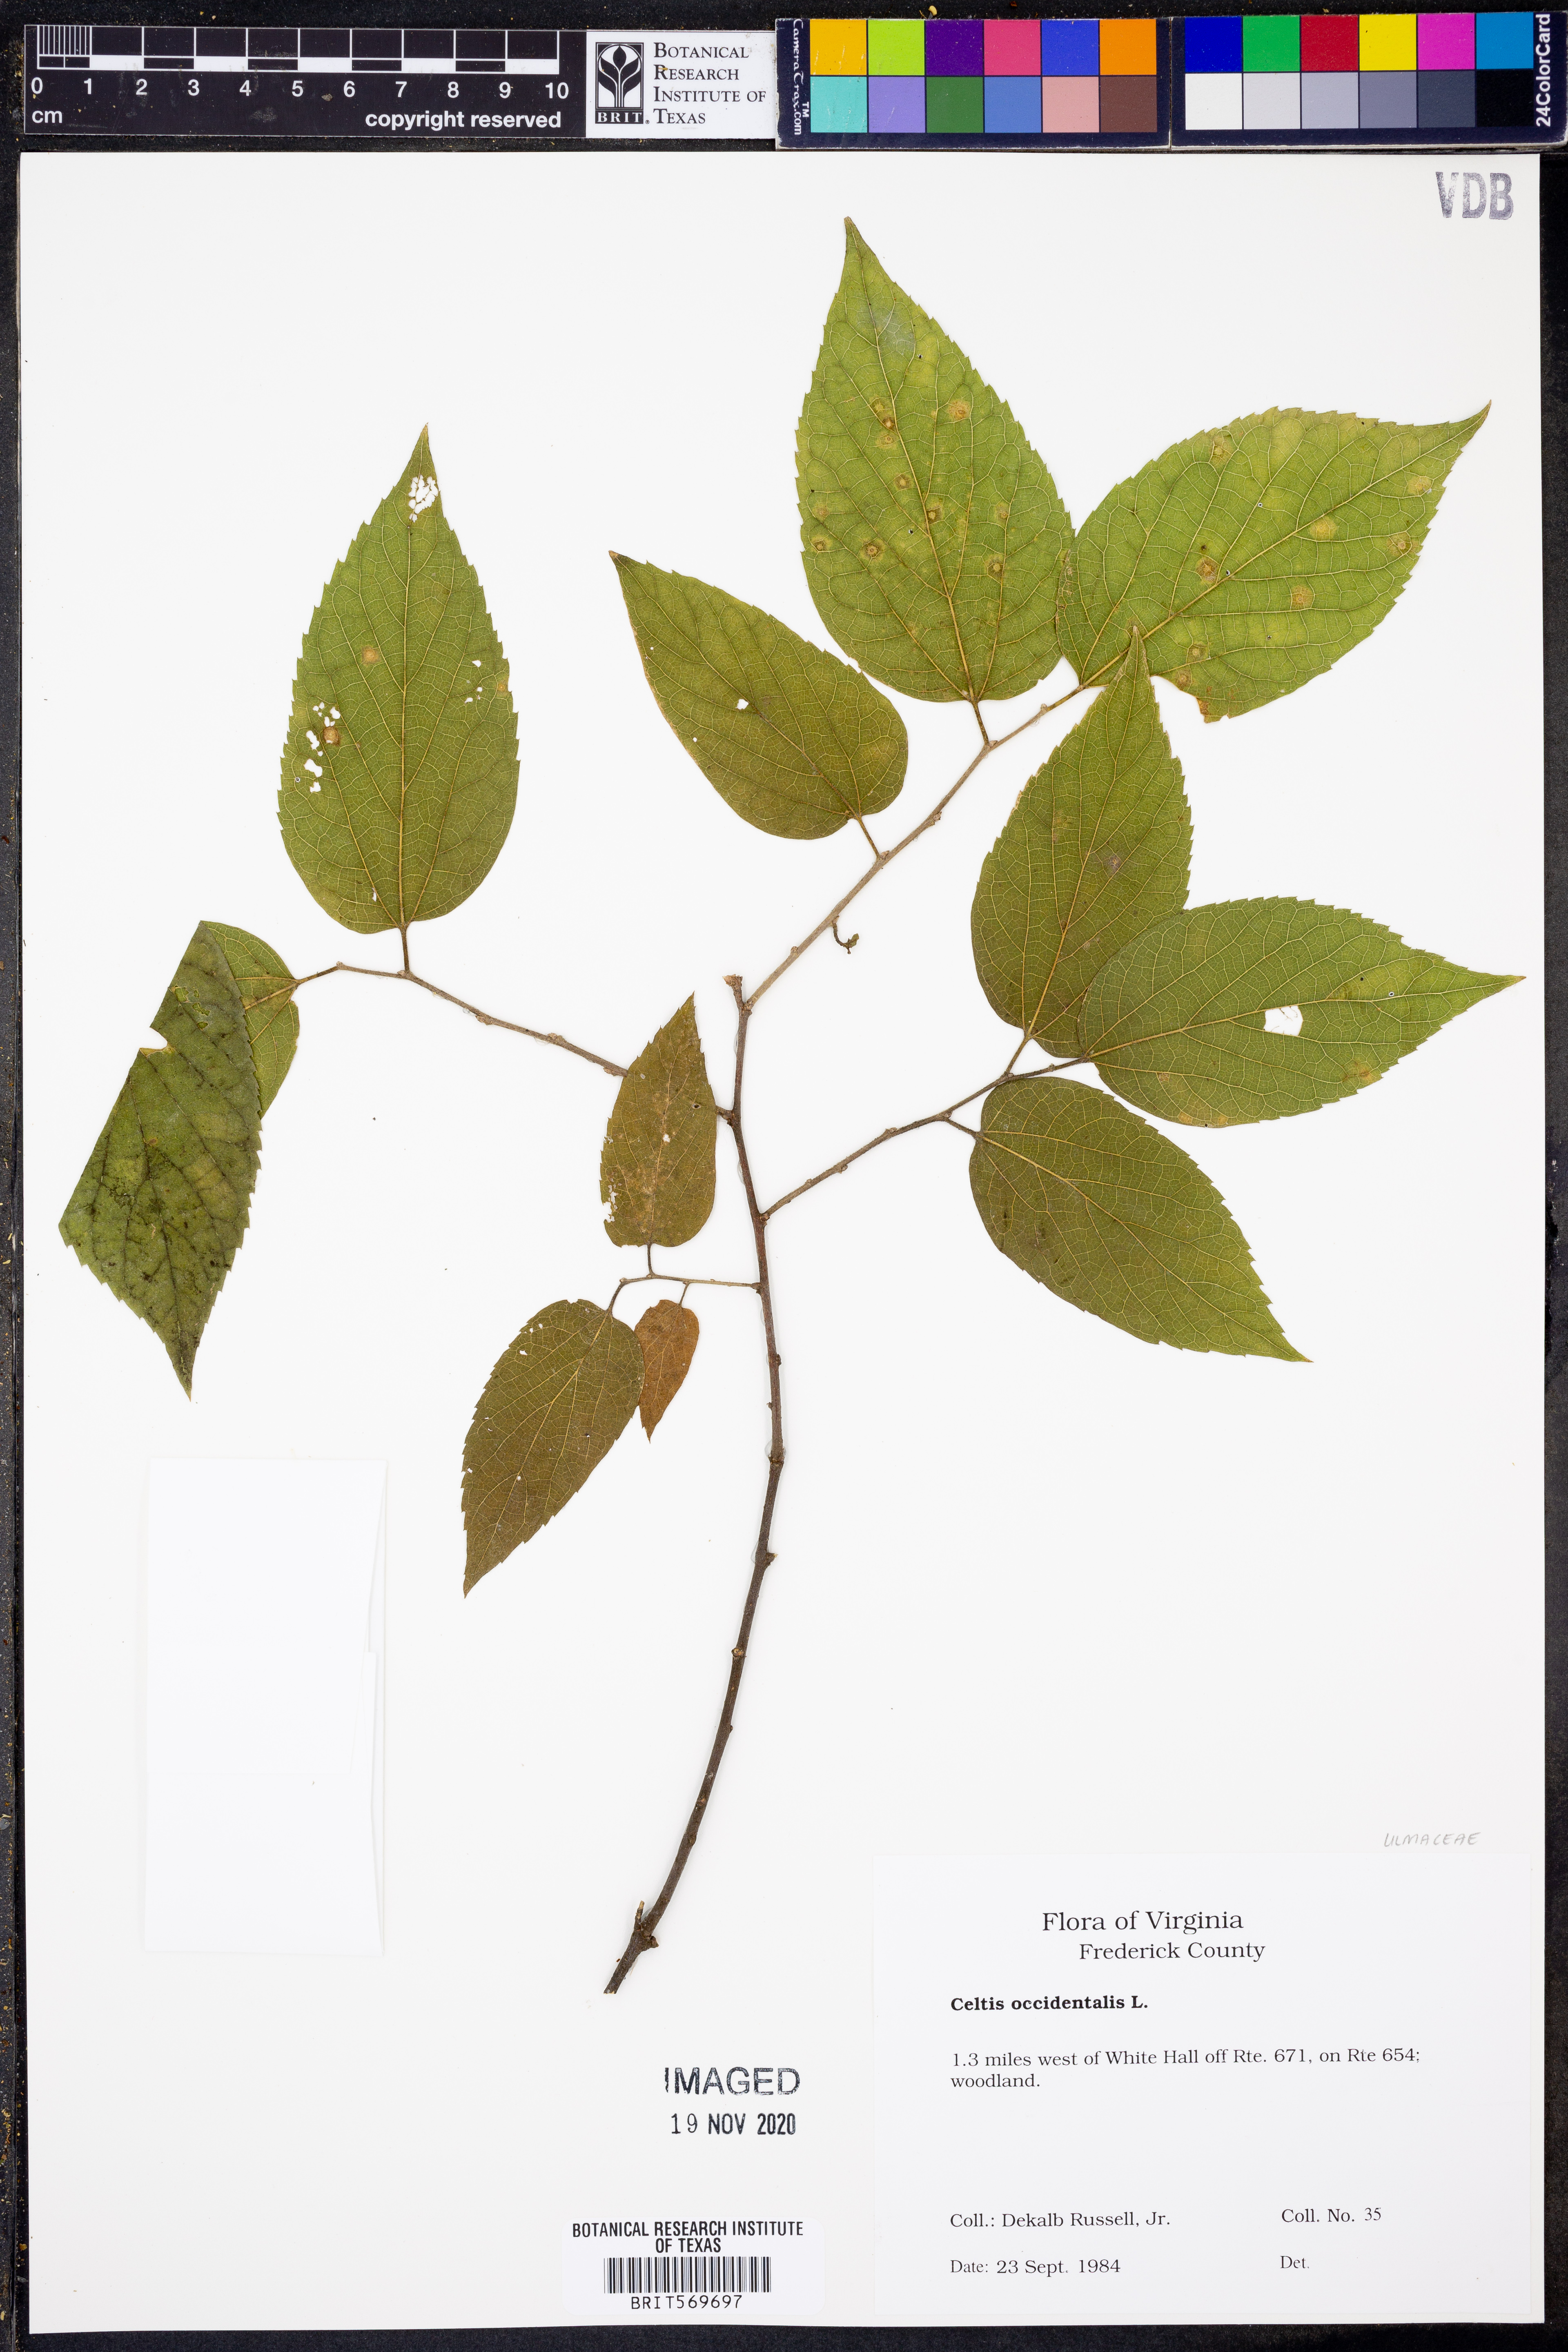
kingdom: Plantae
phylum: Tracheophyta
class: Magnoliopsida
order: Rosales
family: Cannabaceae
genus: Celtis
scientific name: Celtis occidentalis
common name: Common hackberry
